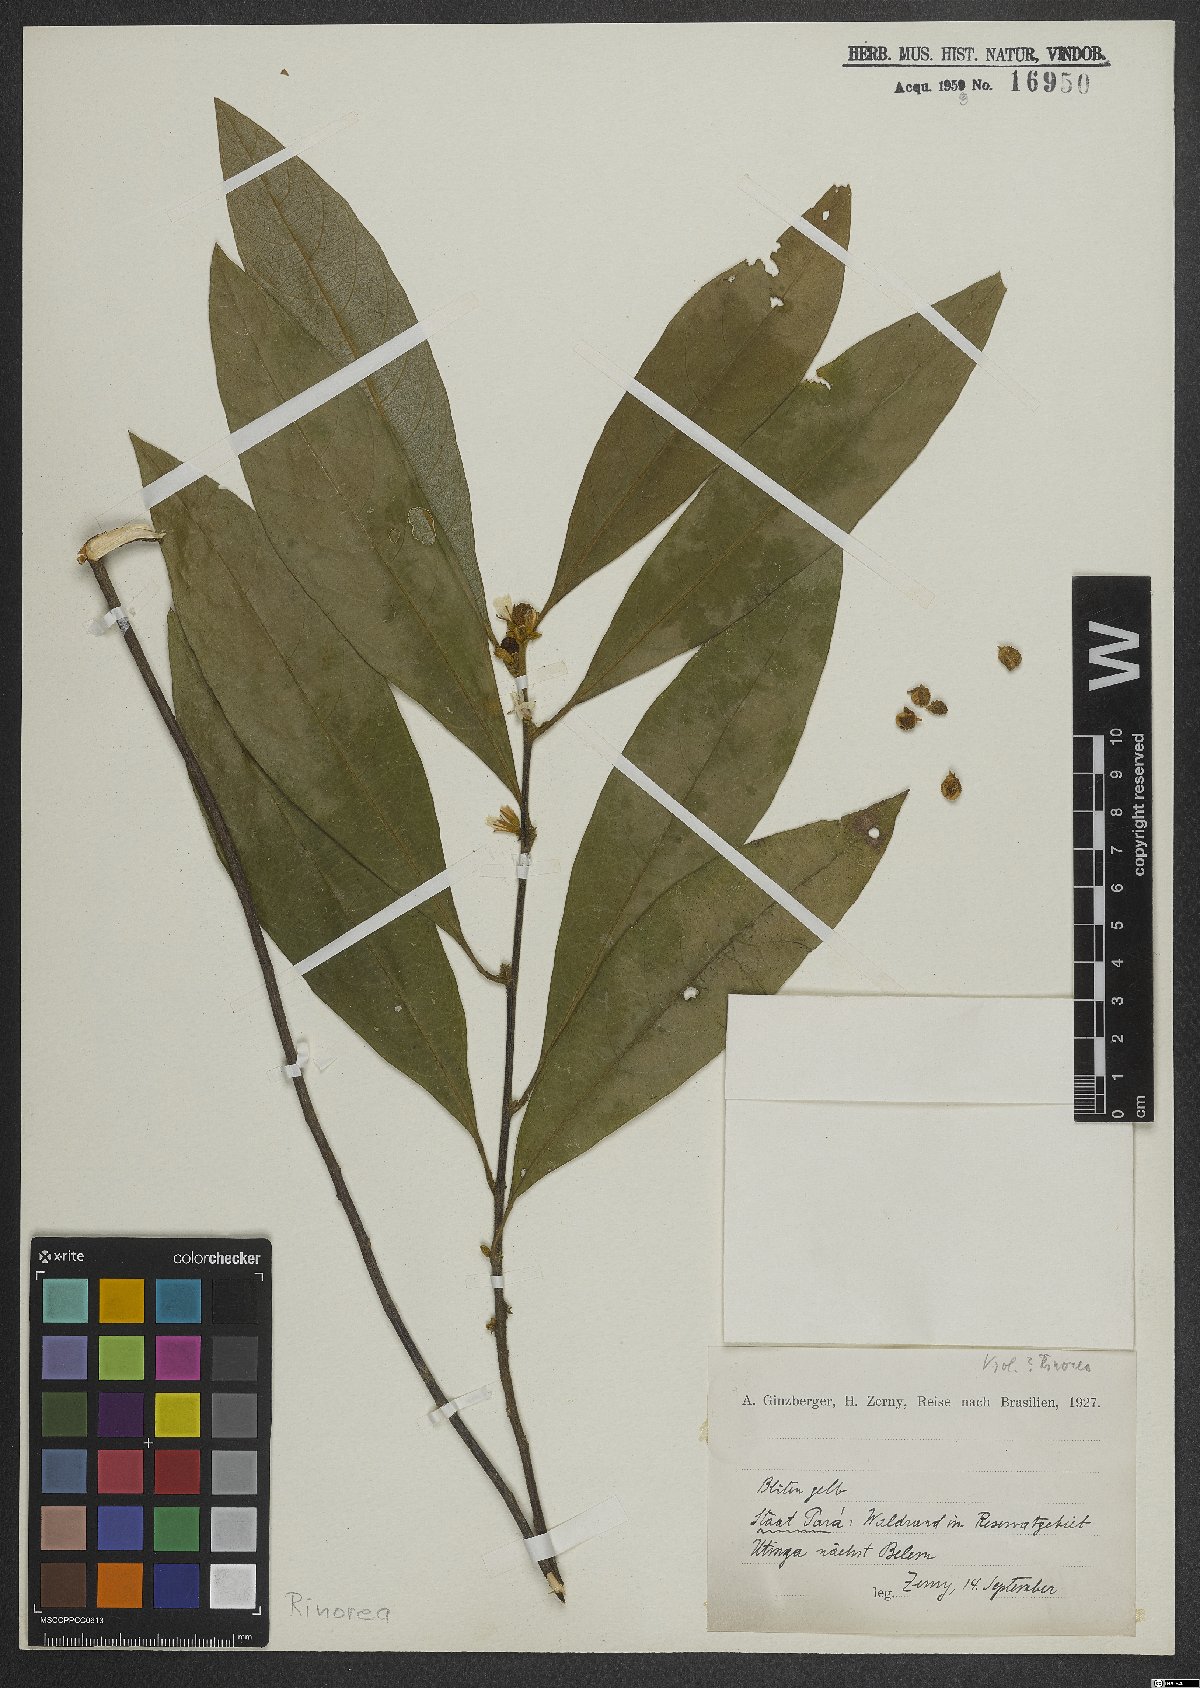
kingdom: Plantae
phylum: Tracheophyta
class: Magnoliopsida
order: Malpighiales
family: Violaceae
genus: Rinorea
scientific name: Rinorea
